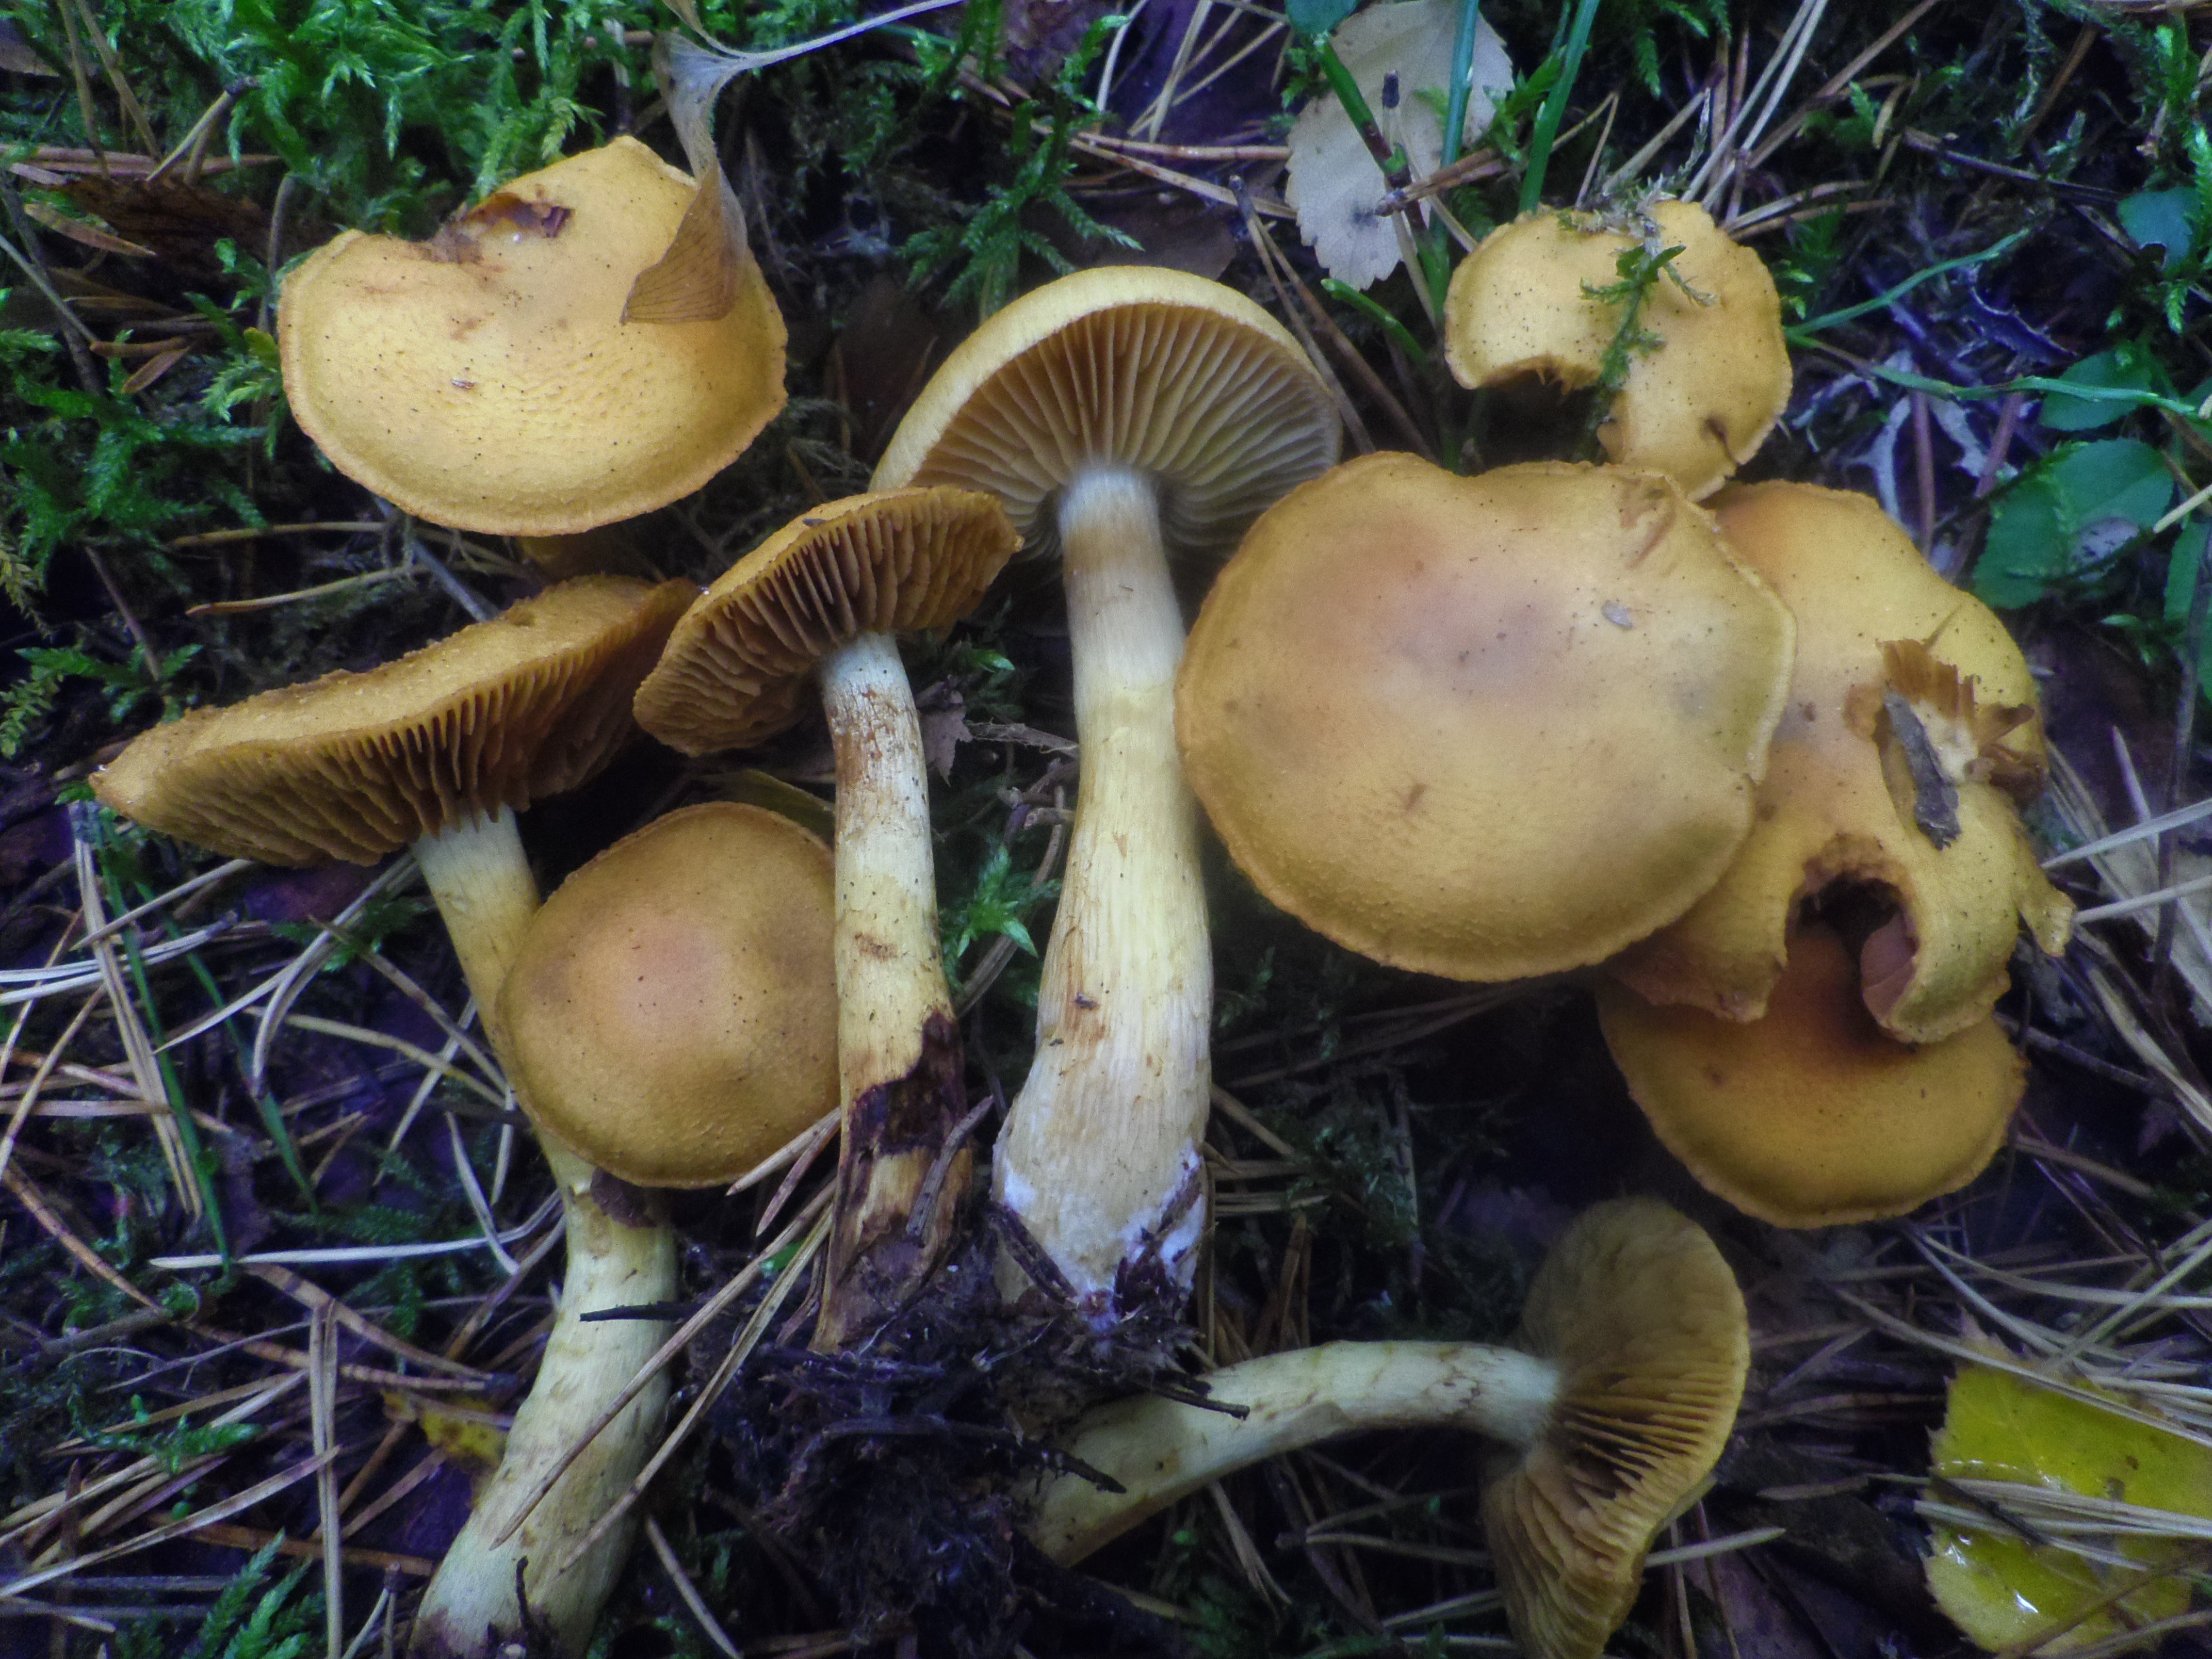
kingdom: Fungi
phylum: Basidiomycota
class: Agaricomycetes
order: Agaricales
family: Cortinariaceae
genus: Aureonarius
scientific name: Aureonarius callisteus
